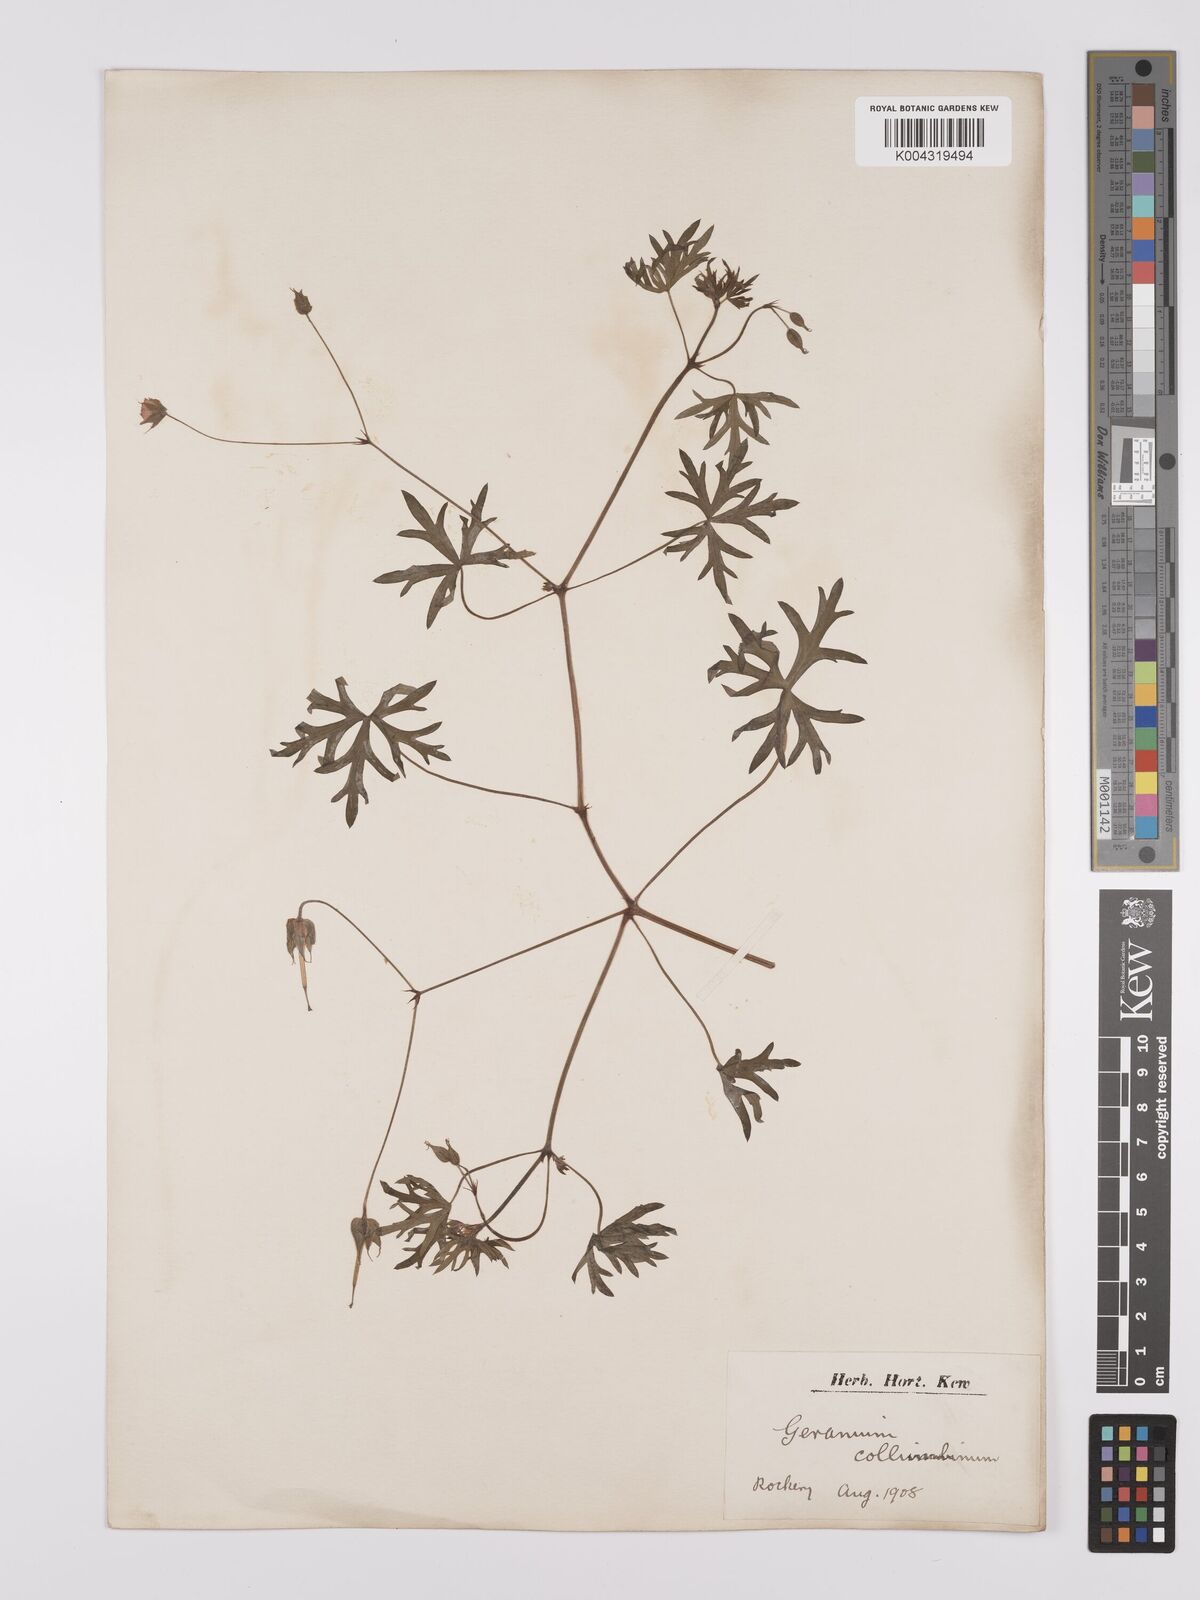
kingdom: Plantae
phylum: Tracheophyta
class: Magnoliopsida
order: Geraniales
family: Geraniaceae
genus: Geranium
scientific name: Geranium collinum
